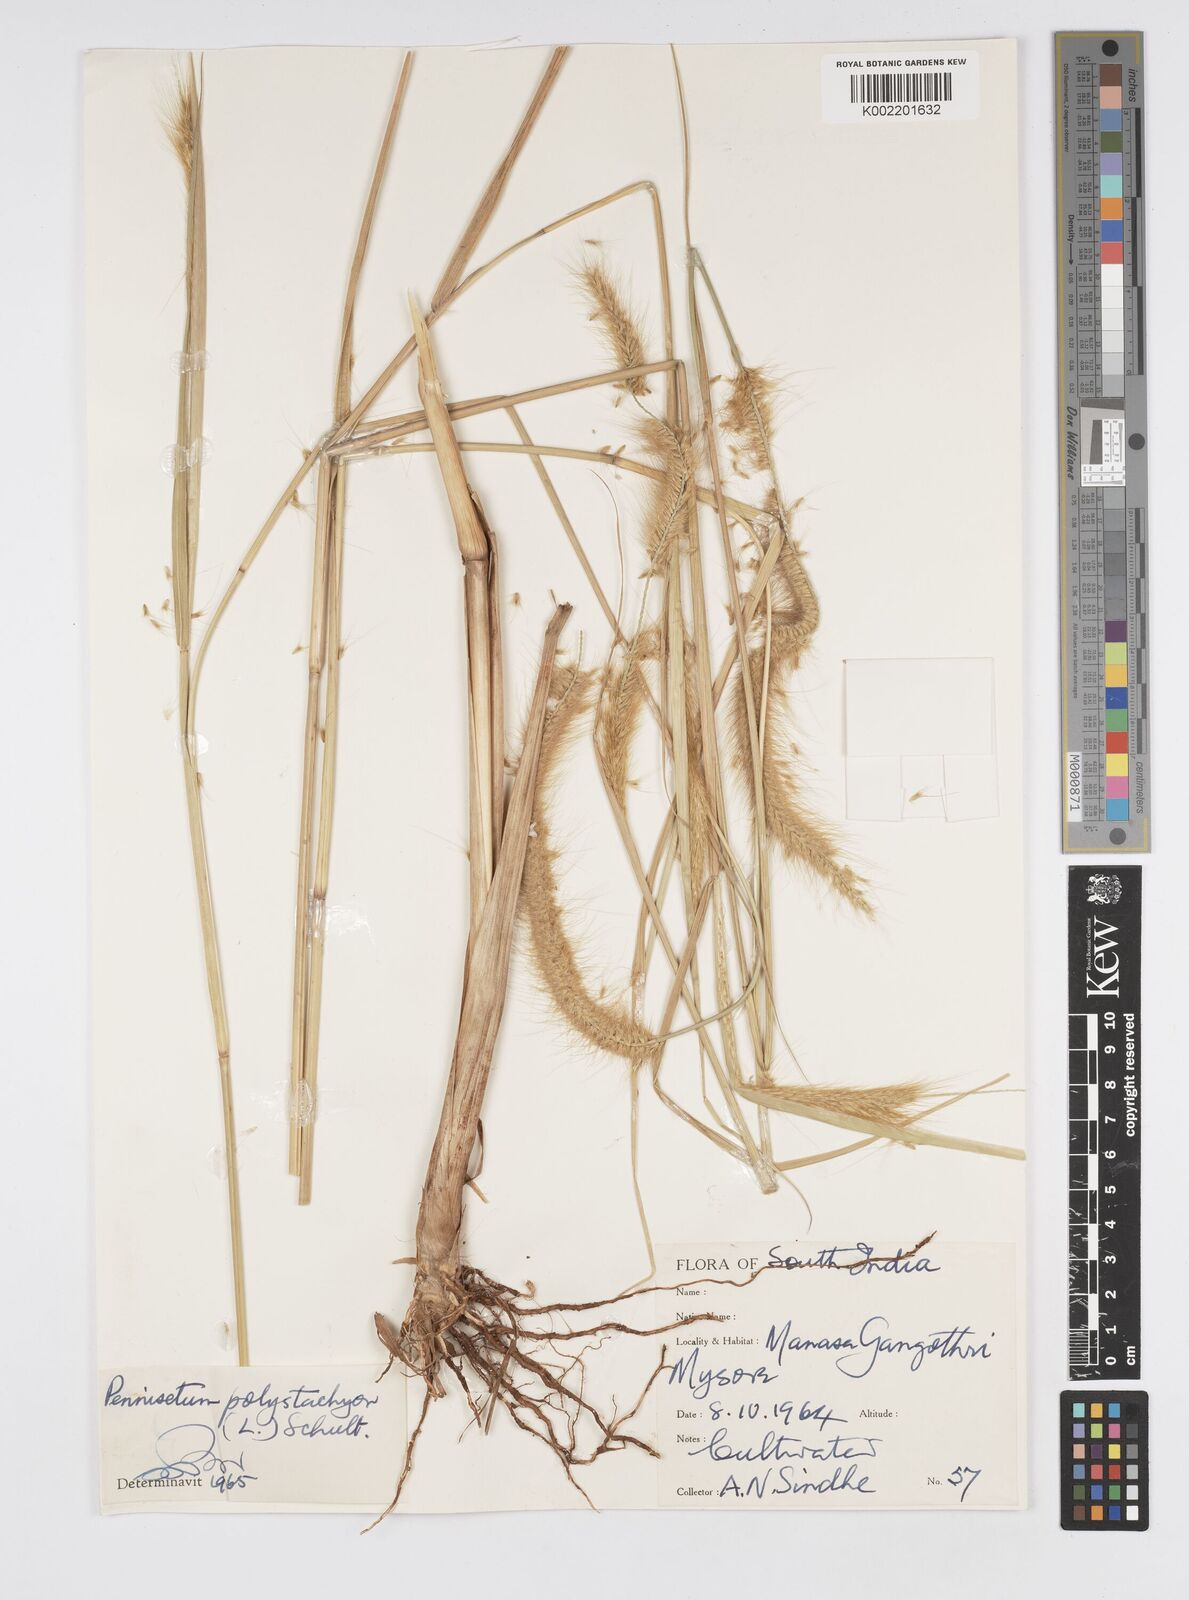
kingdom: Plantae
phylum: Tracheophyta
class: Liliopsida
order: Poales
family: Poaceae
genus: Setaria
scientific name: Setaria parviflora
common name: Knotroot bristle-grass
